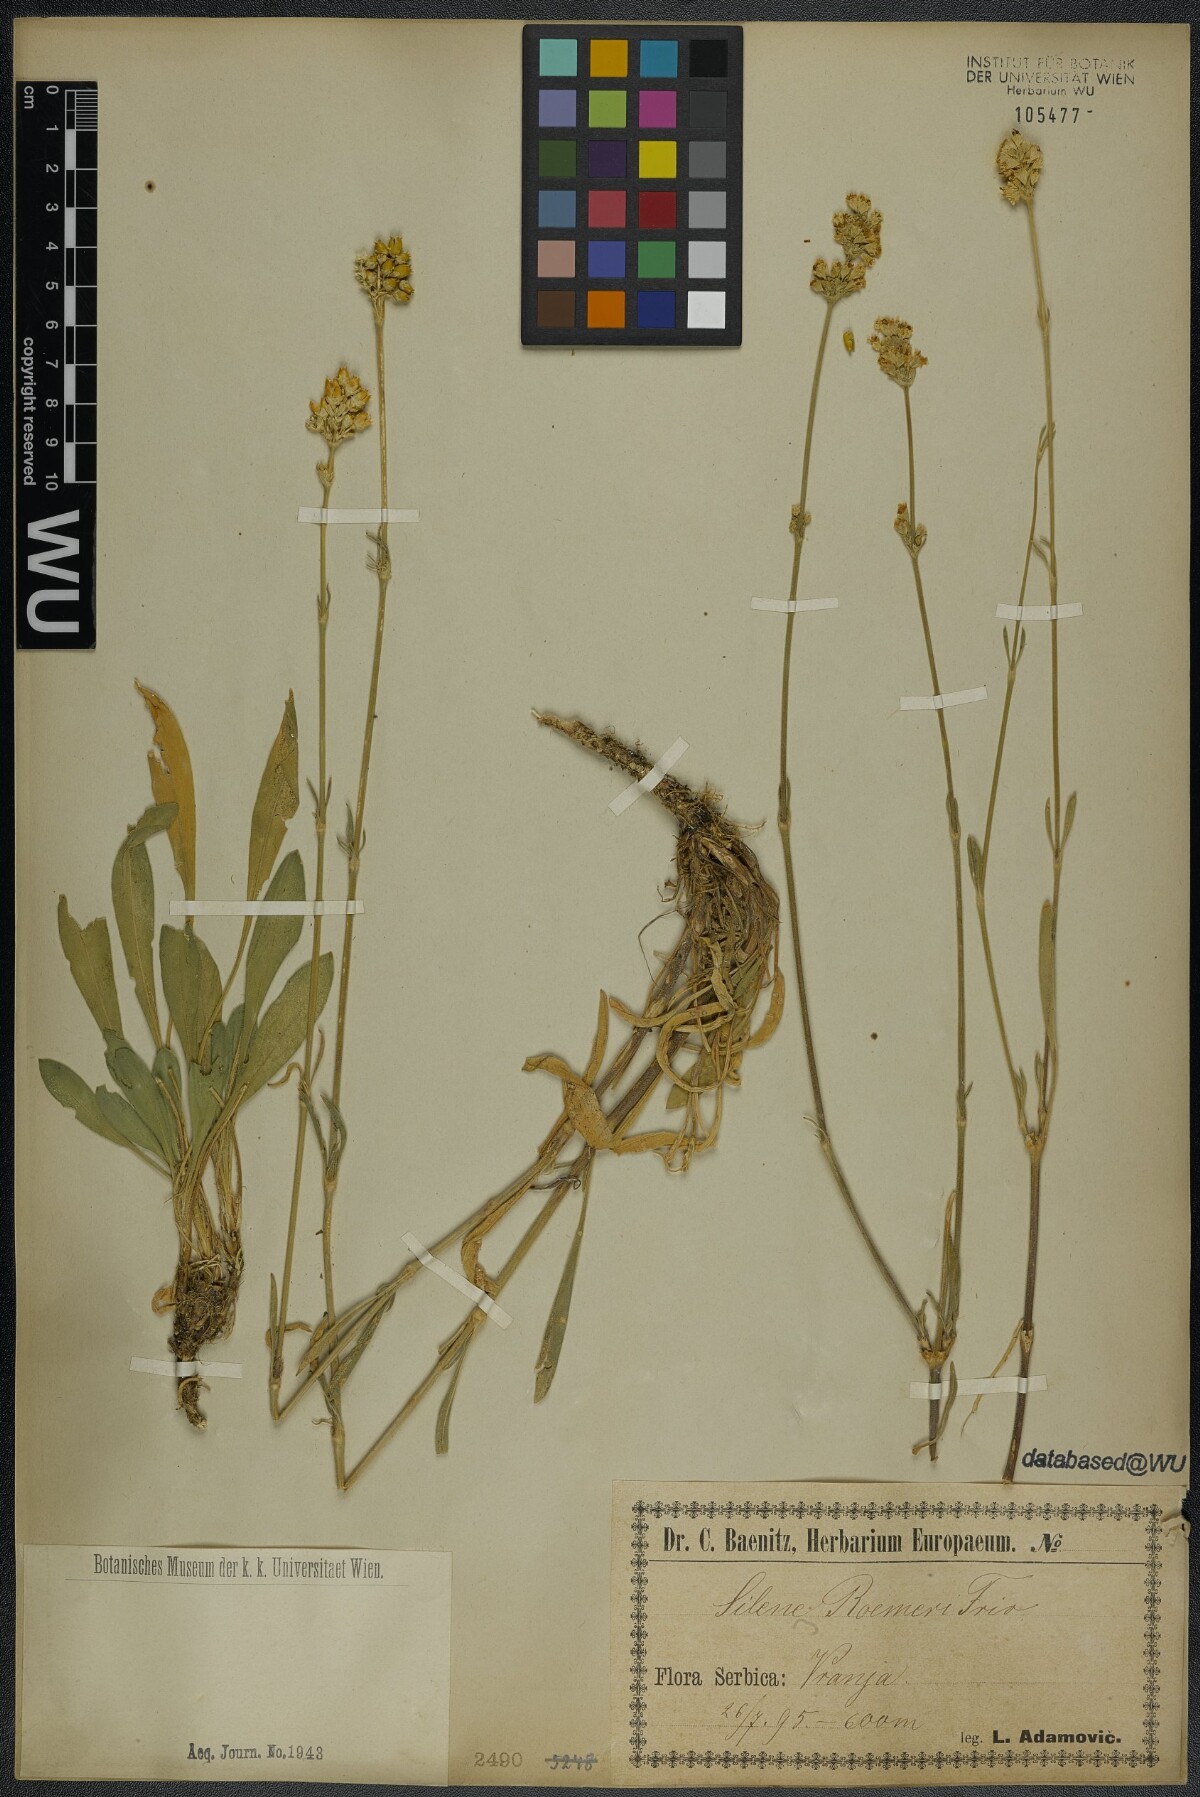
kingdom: Plantae
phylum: Tracheophyta
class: Magnoliopsida
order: Caryophyllales
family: Caryophyllaceae
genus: Silene
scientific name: Silene roemeri
